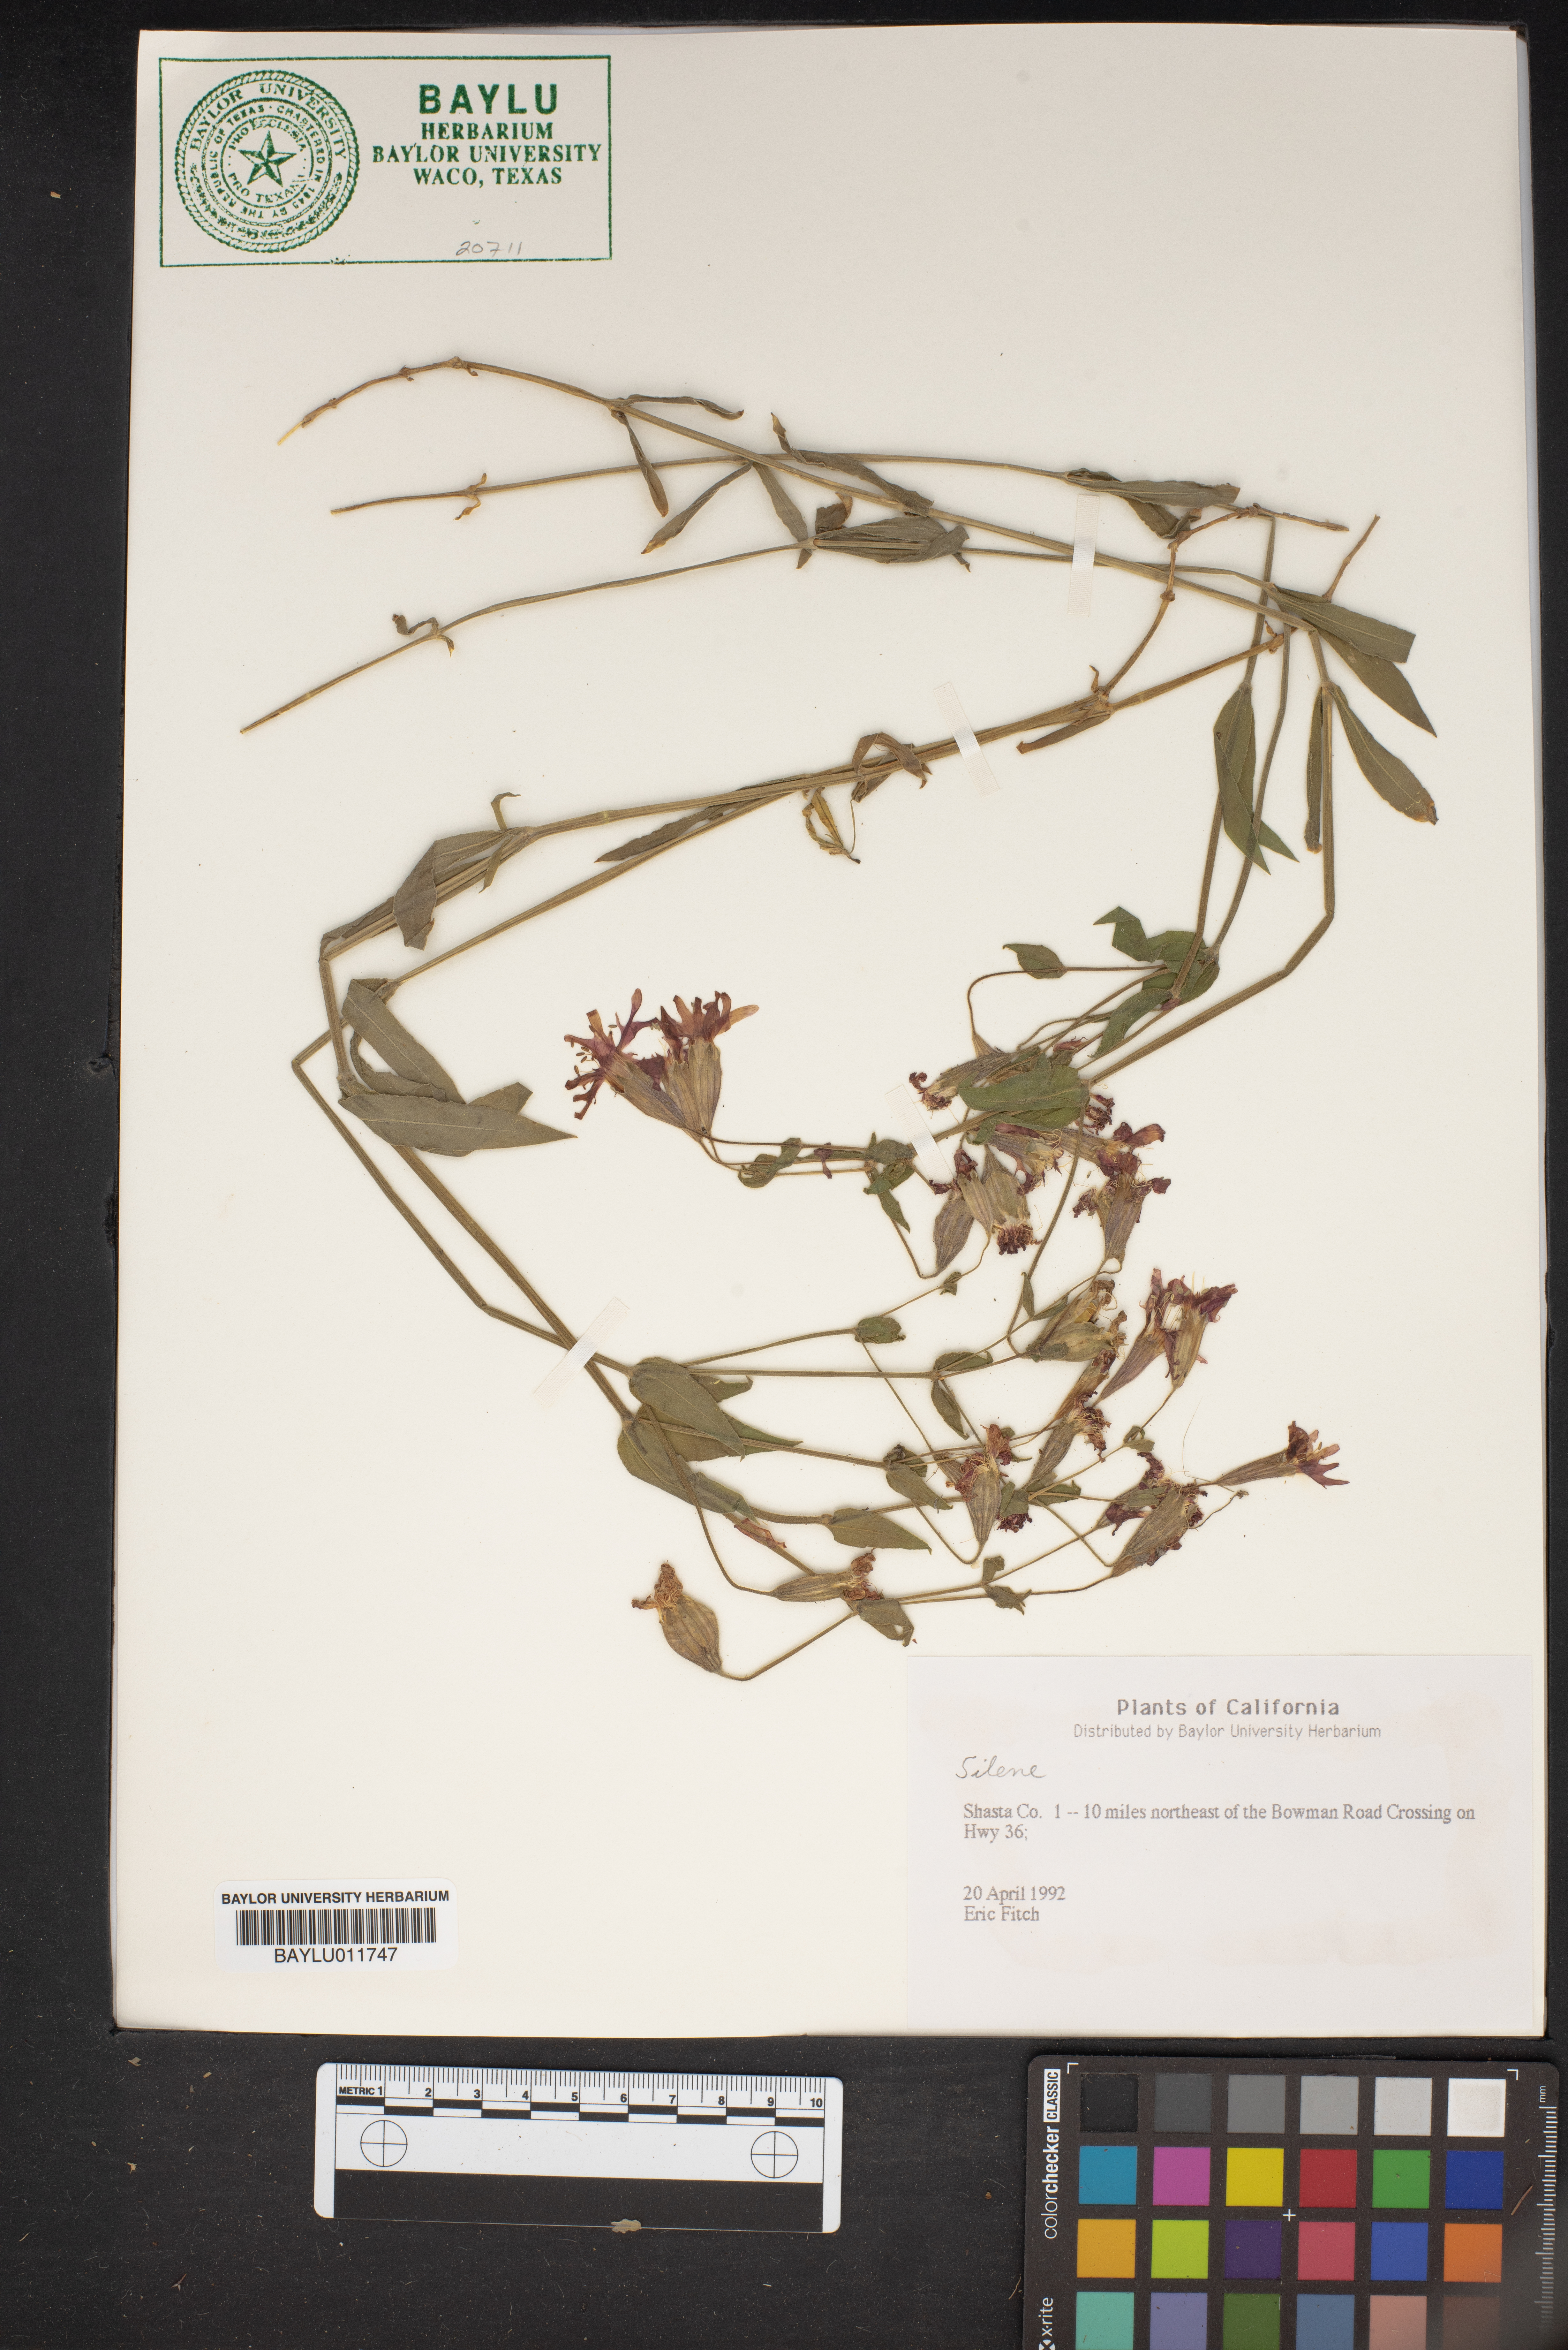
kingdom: Plantae
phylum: Tracheophyta
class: Magnoliopsida
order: Caryophyllales
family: Caryophyllaceae
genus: Silene
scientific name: Silene
